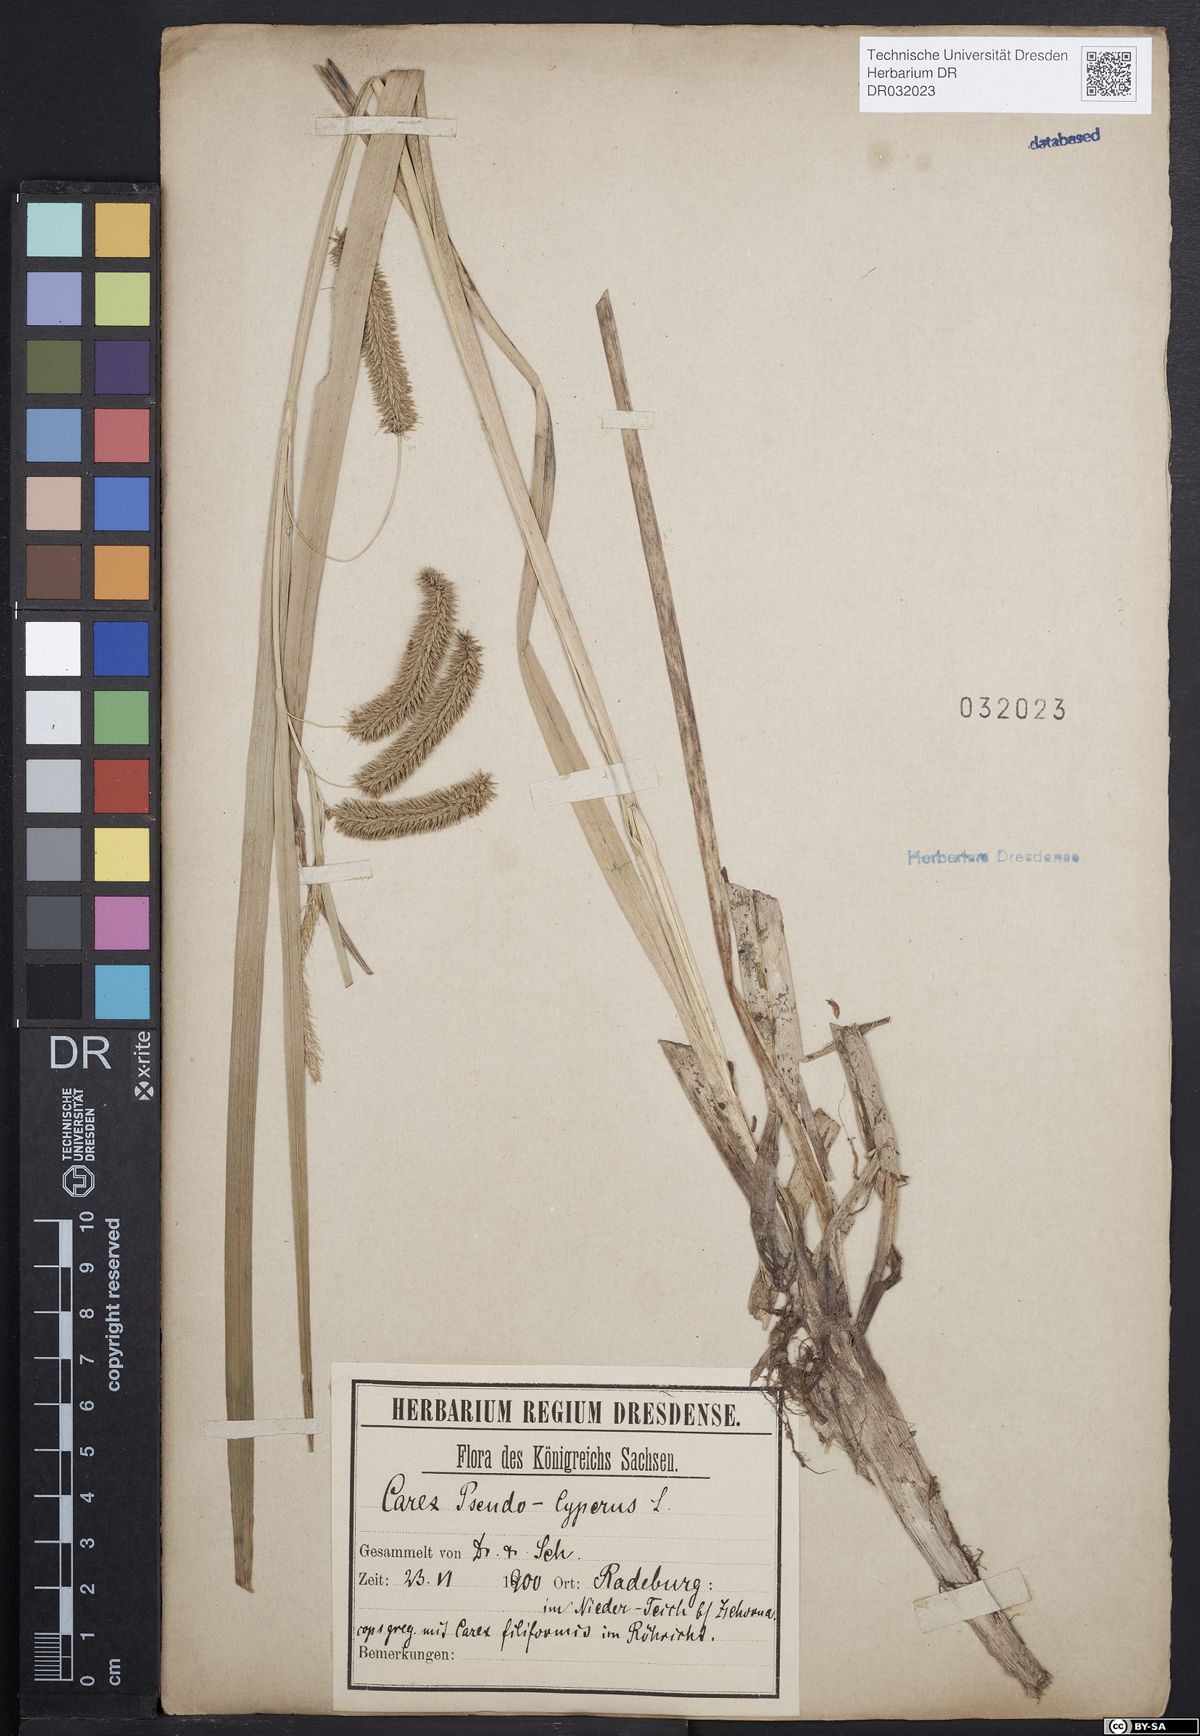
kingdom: Plantae
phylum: Tracheophyta
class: Liliopsida
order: Poales
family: Cyperaceae
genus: Carex
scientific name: Carex pseudocyperus
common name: Cyperus sedge
